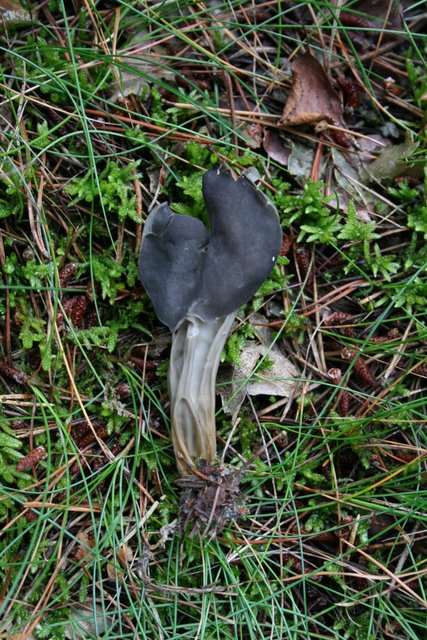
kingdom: Fungi
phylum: Ascomycota
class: Pezizomycetes
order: Pezizales
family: Helvellaceae
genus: Helvella
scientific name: Helvella lacunosa
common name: grubet foldhat
